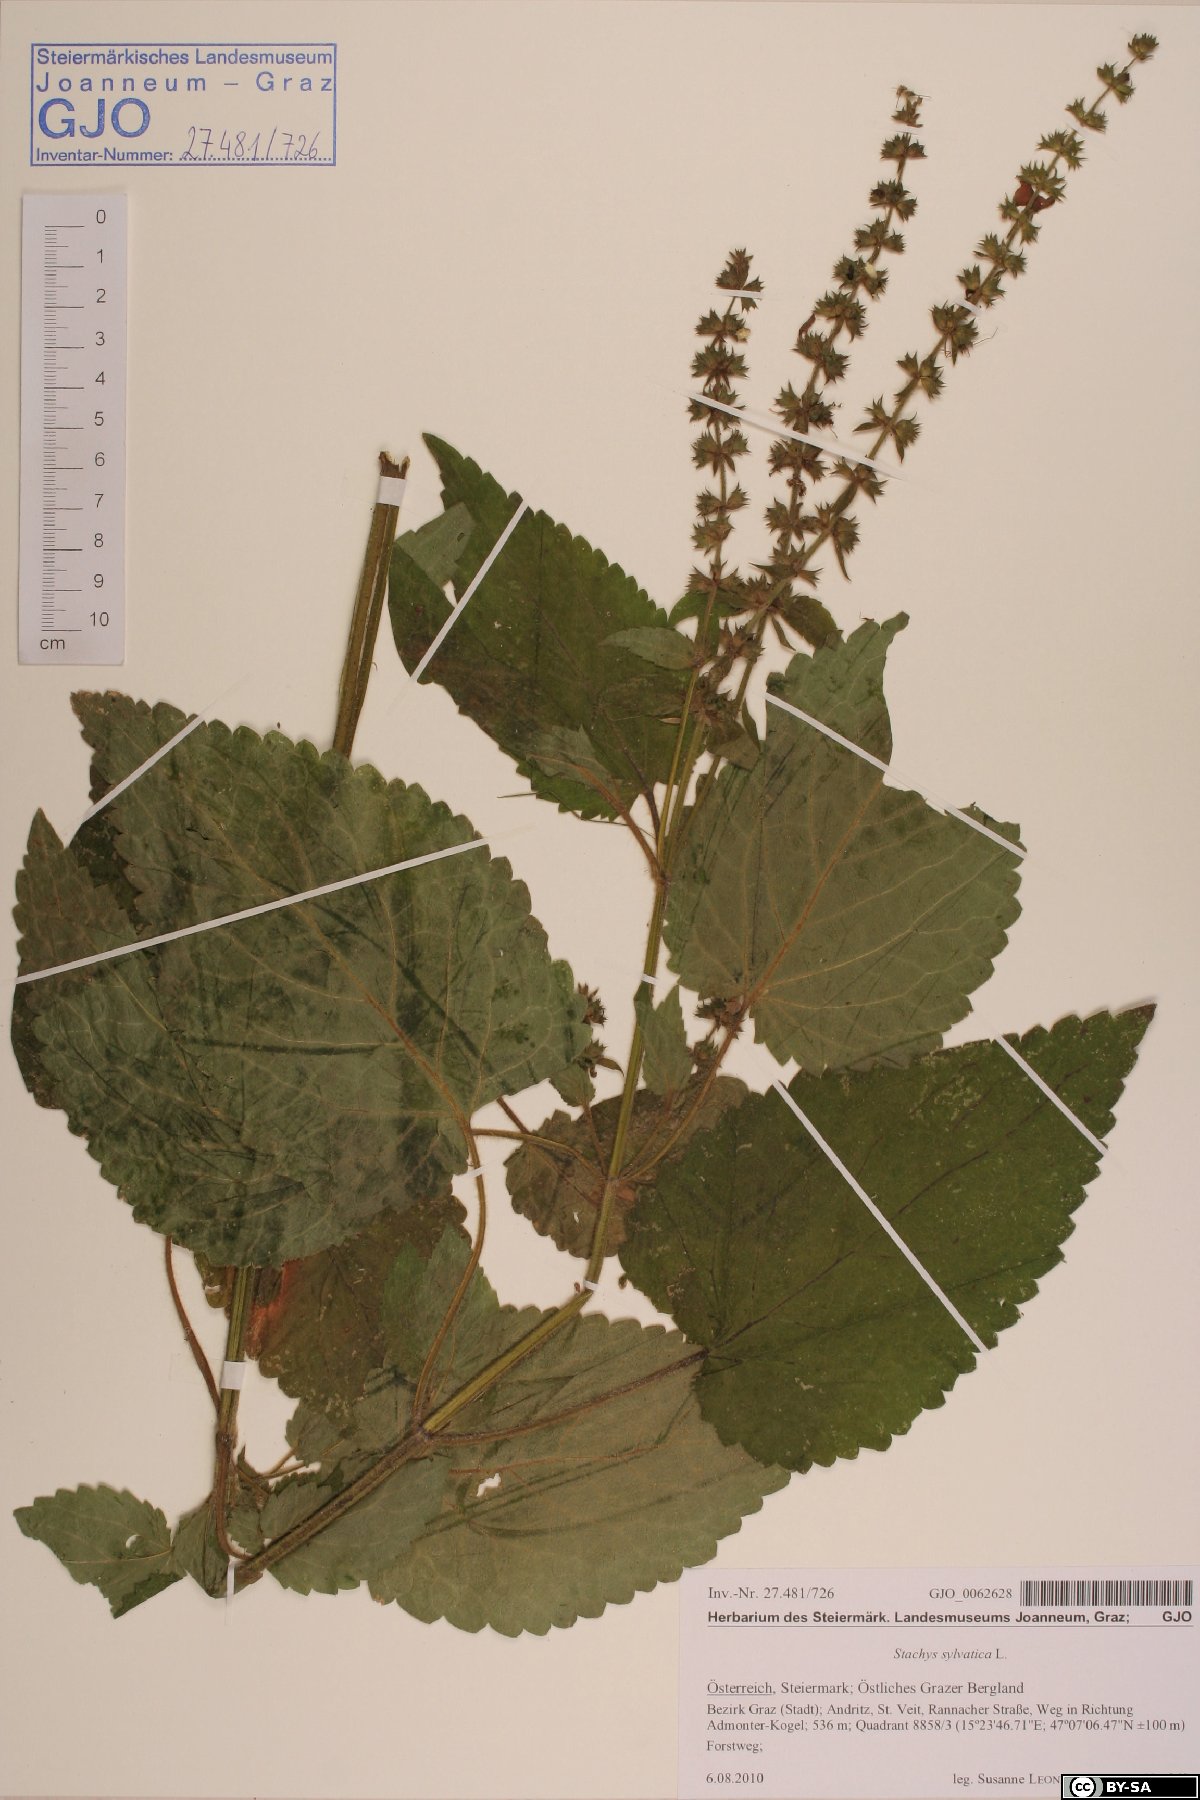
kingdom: Plantae
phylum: Tracheophyta
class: Magnoliopsida
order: Lamiales
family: Lamiaceae
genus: Stachys
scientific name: Stachys sylvatica
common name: Hedge woundwort
